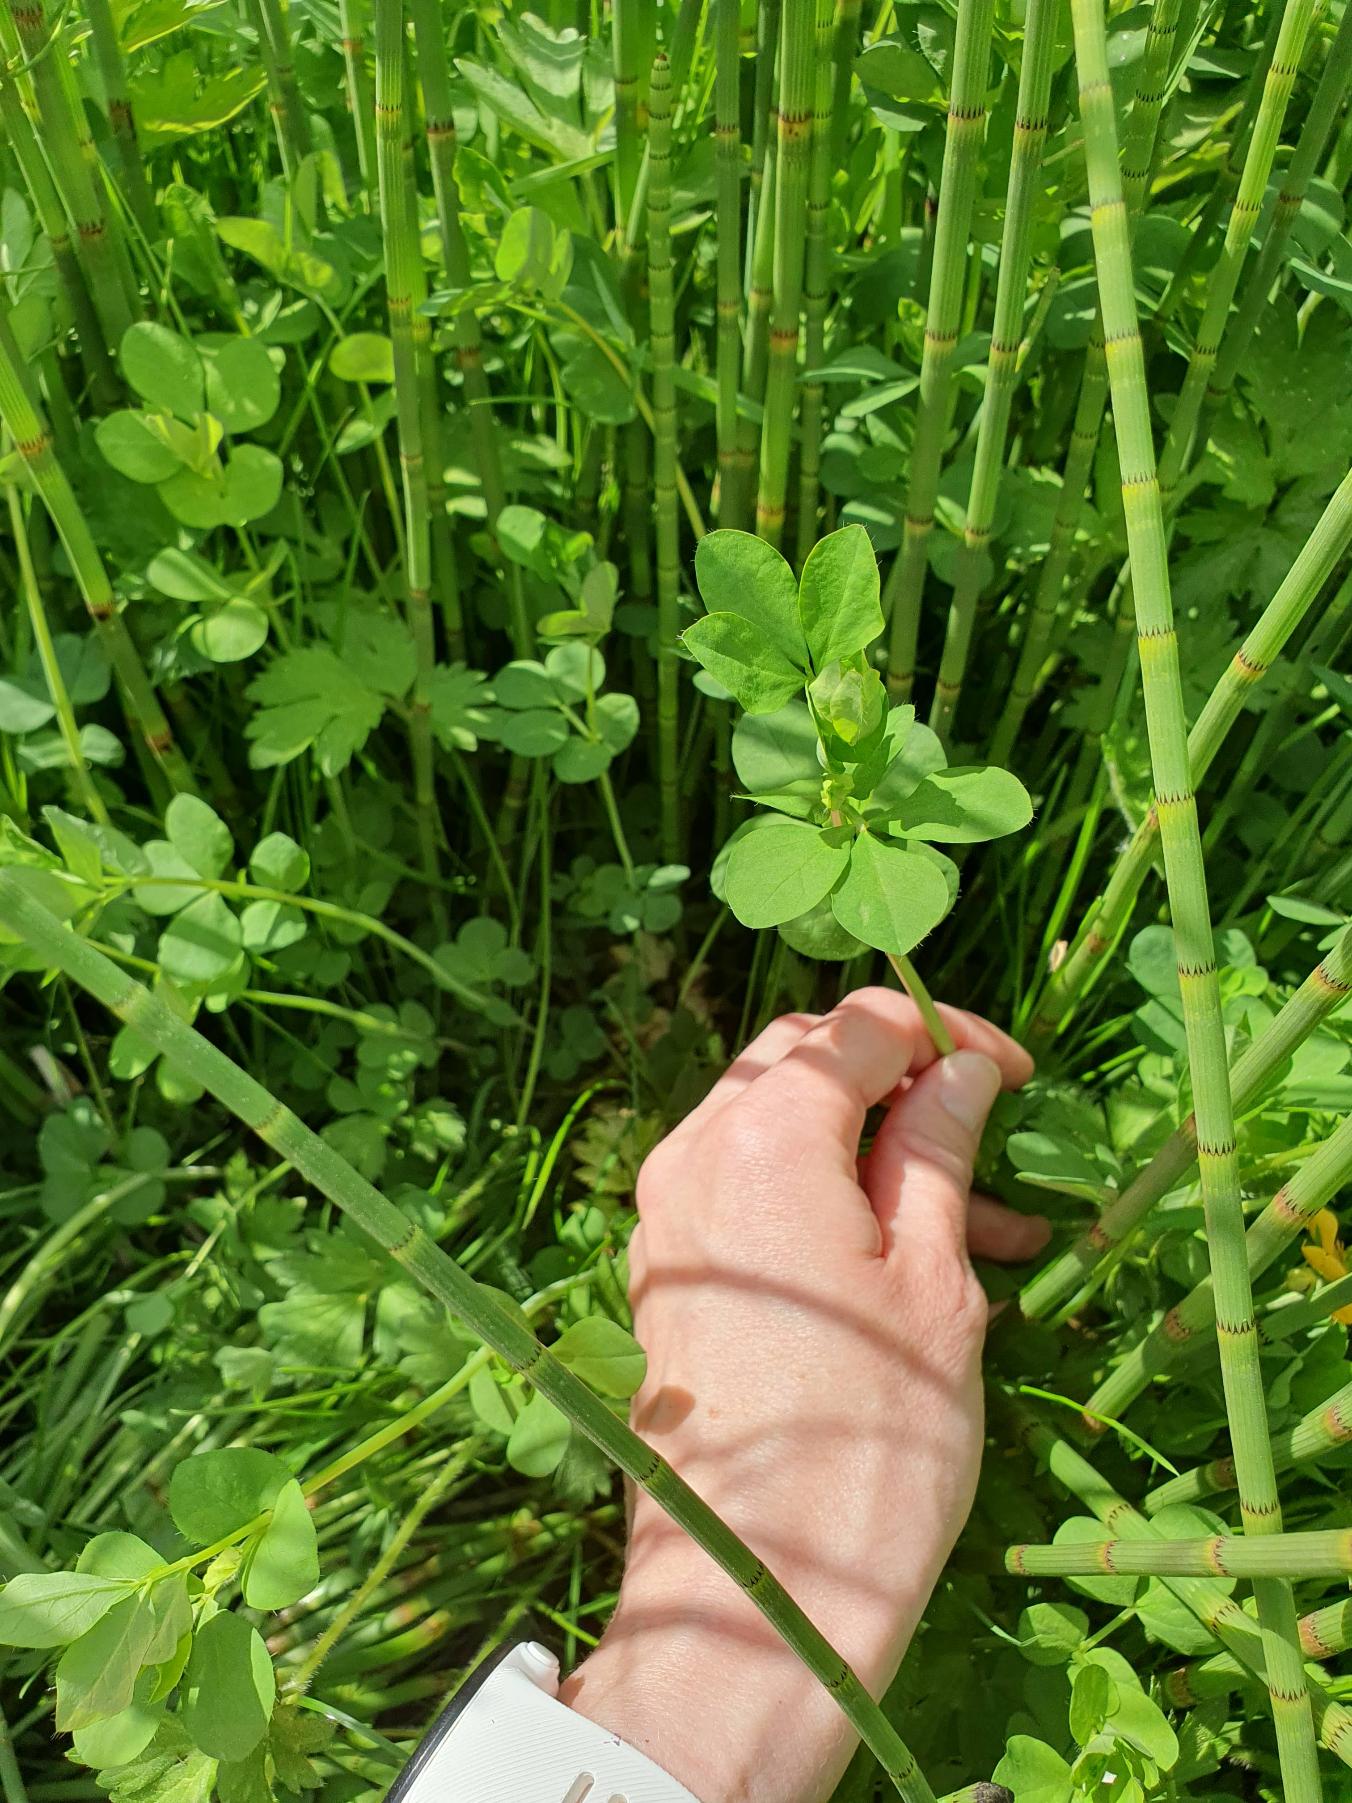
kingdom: Plantae
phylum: Tracheophyta
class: Magnoliopsida
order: Fabales
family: Fabaceae
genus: Lotus
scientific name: Lotus pedunculatus
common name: Sump-kællingetand
